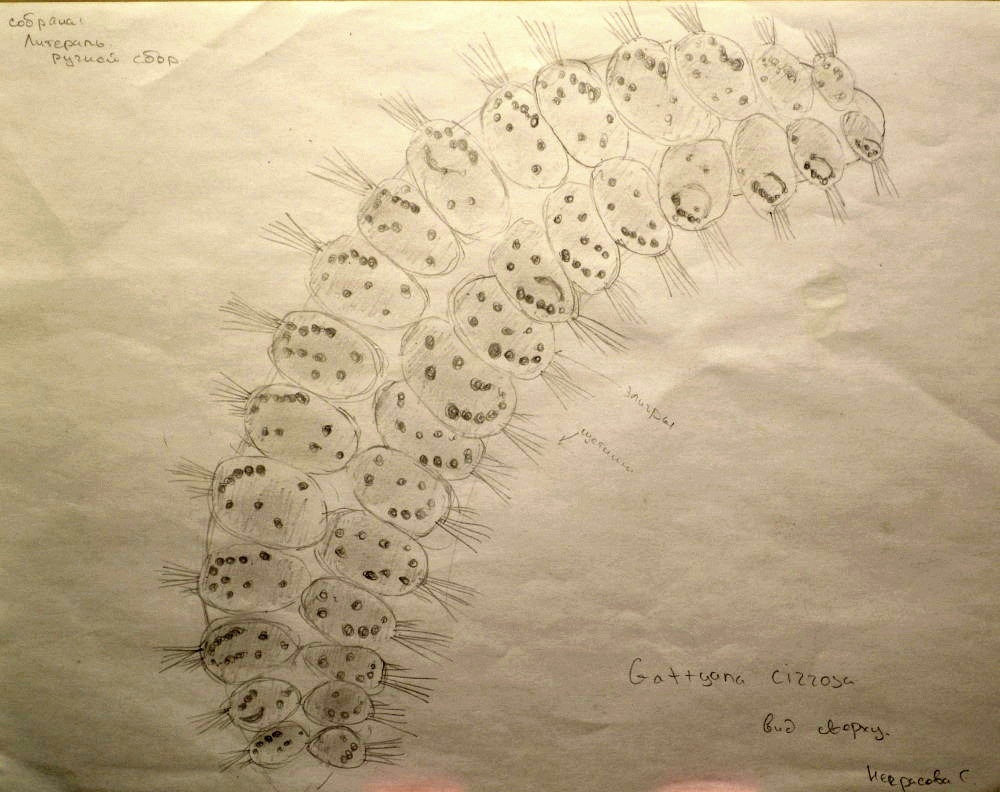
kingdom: Animalia
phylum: Annelida
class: Polychaeta
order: Phyllodocida
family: Polynoidae
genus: Gattyana
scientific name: Gattyana cirrosa
